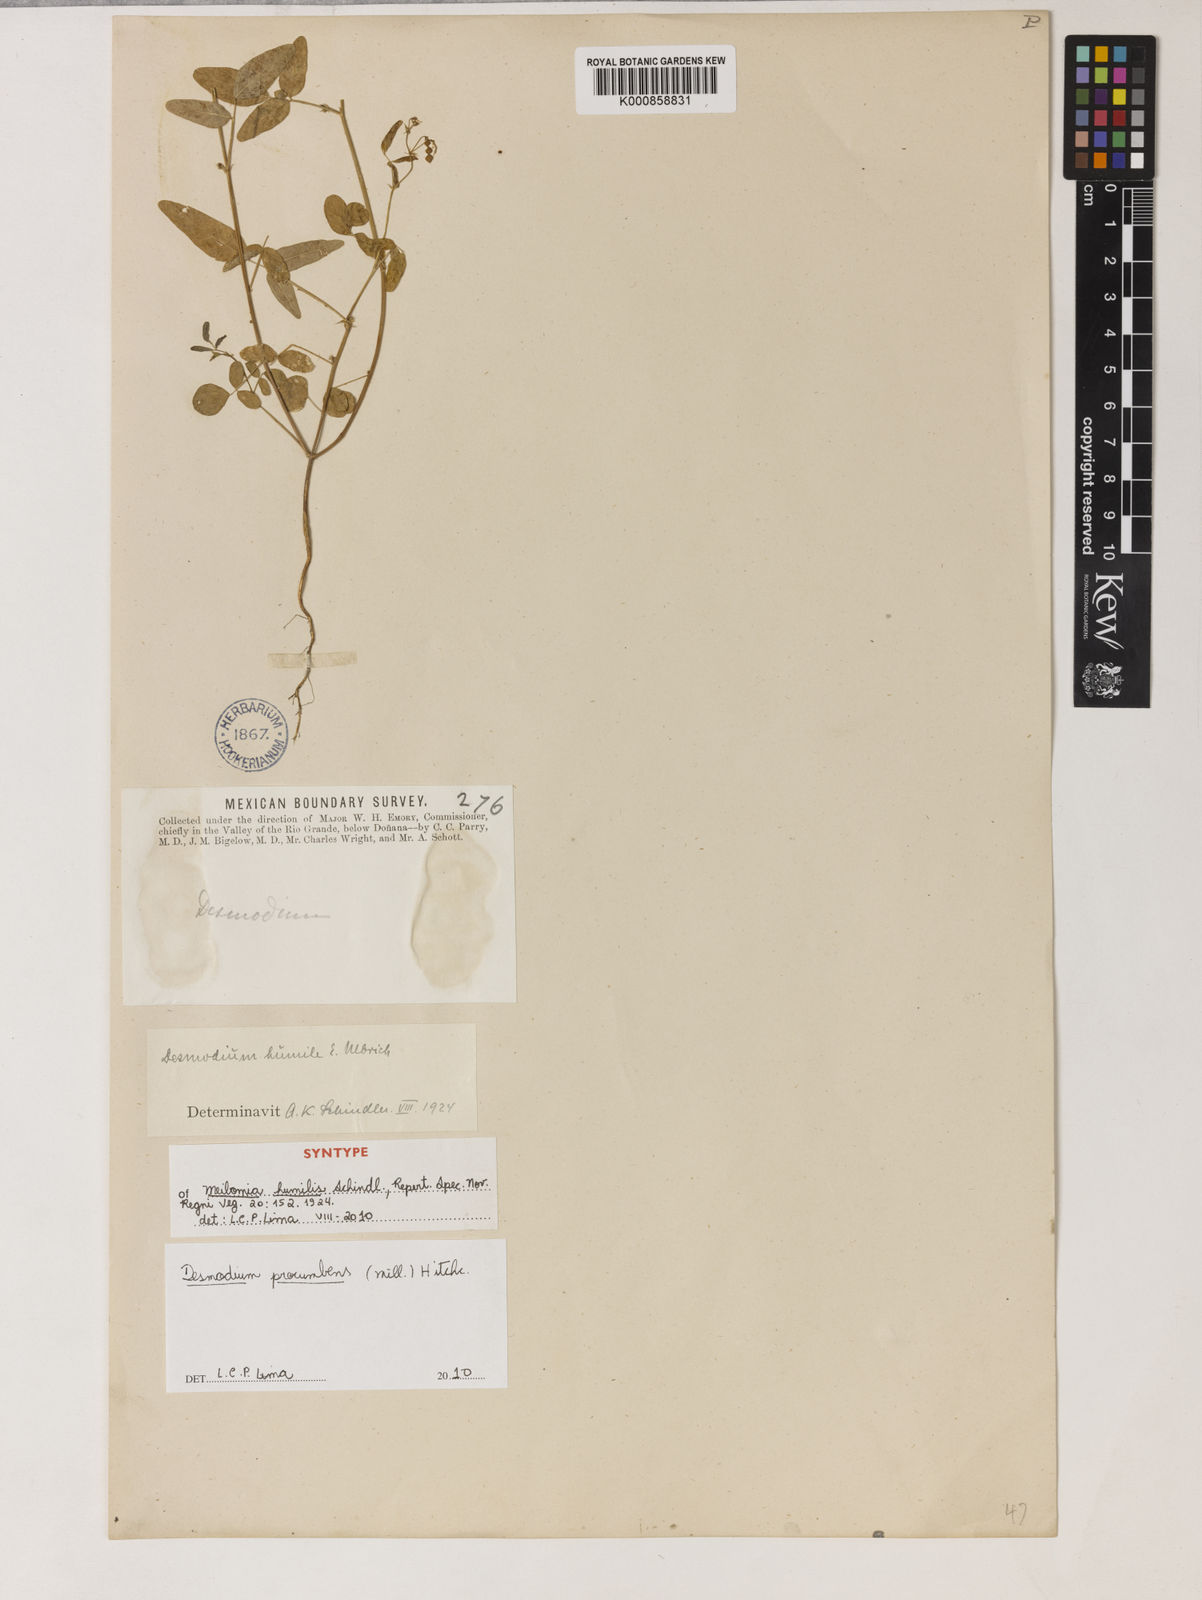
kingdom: Plantae
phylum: Tracheophyta
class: Magnoliopsida
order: Fabales
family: Fabaceae
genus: Desmodium
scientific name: Desmodium procumbens
